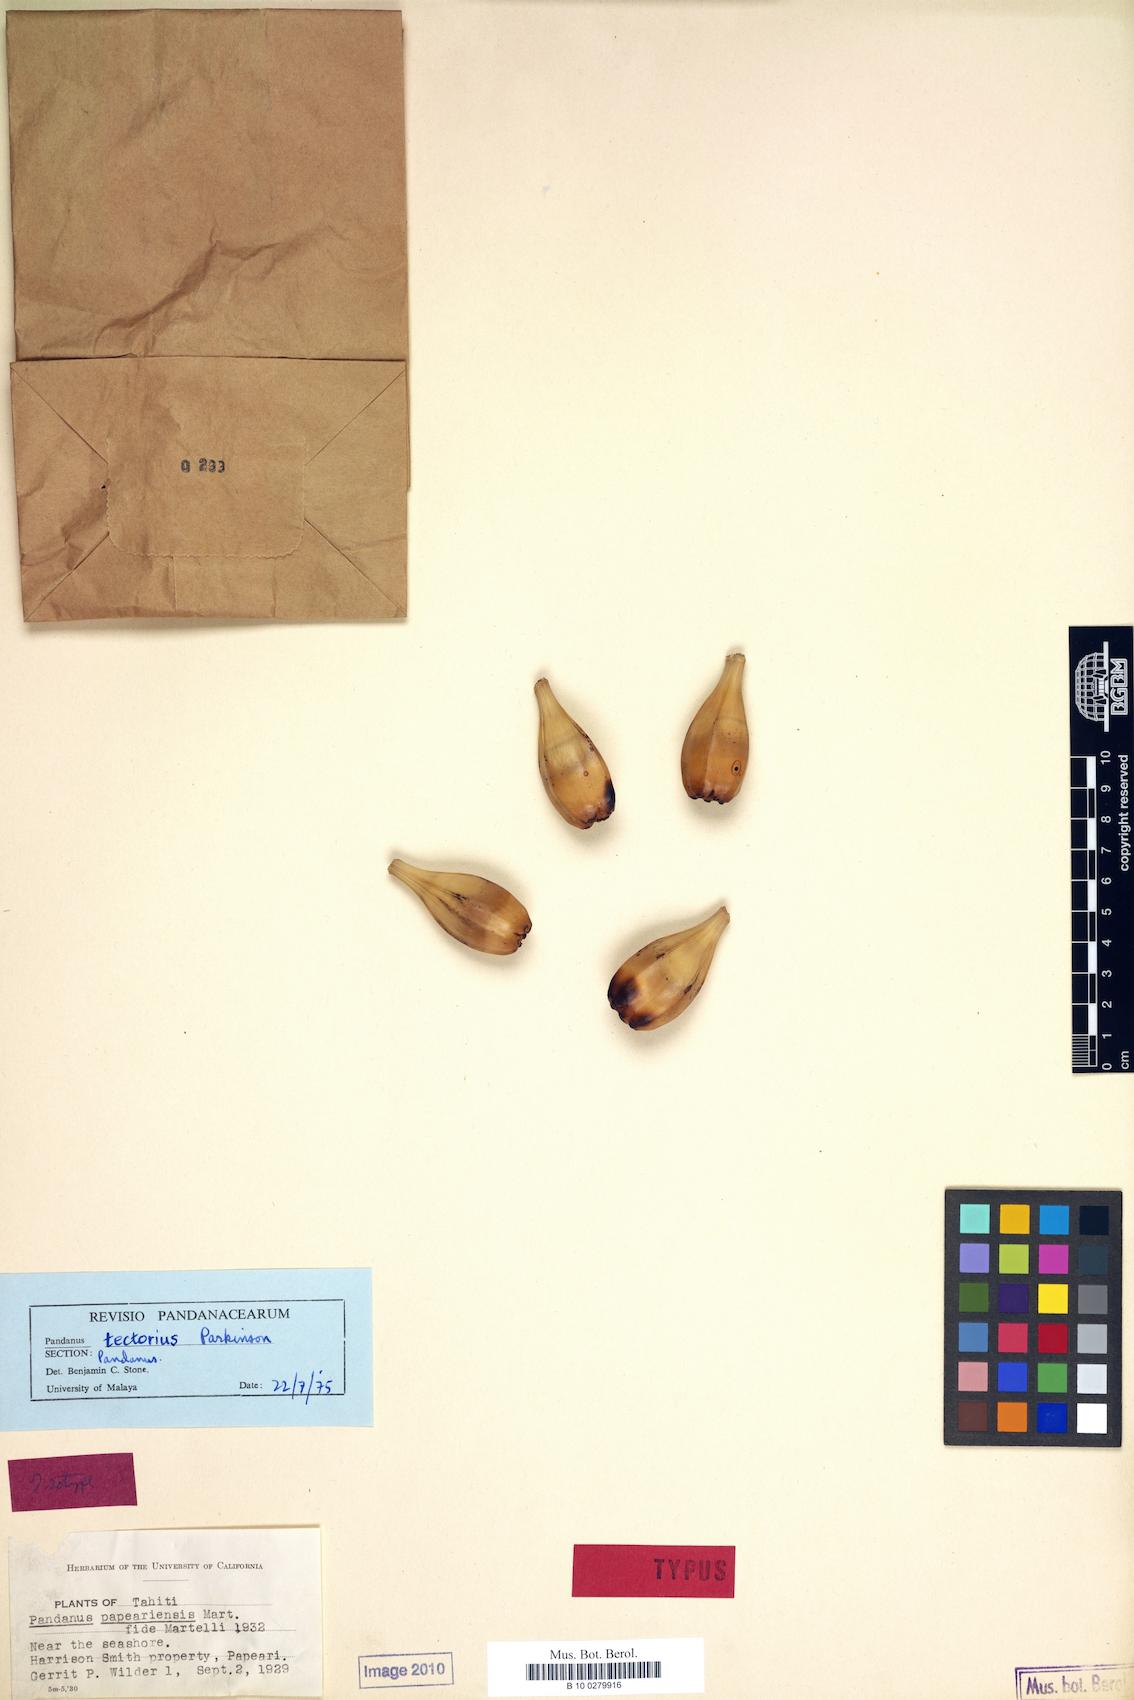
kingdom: Plantae
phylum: Tracheophyta
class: Liliopsida
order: Pandanales
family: Pandanaceae
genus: Pandanus
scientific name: Pandanus tectorius
